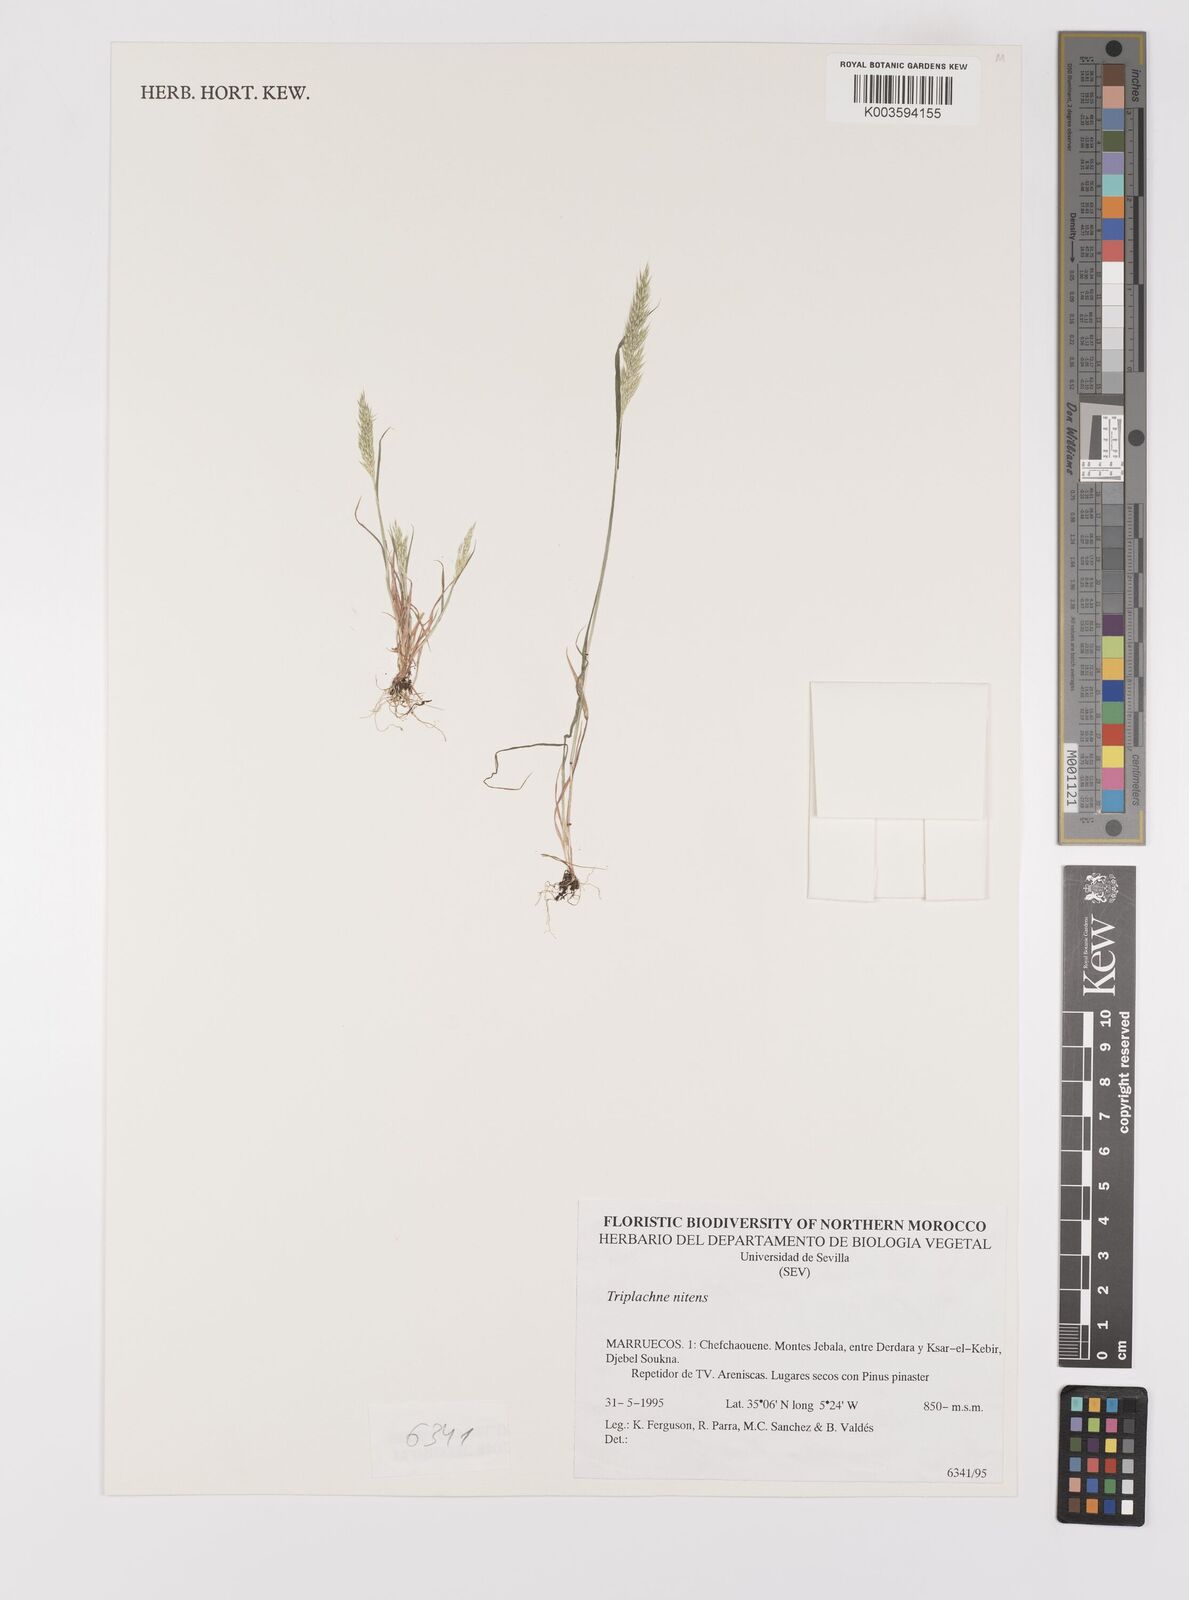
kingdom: Plantae
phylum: Tracheophyta
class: Liliopsida
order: Poales
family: Poaceae
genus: Triplachne
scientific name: Triplachne nitens
